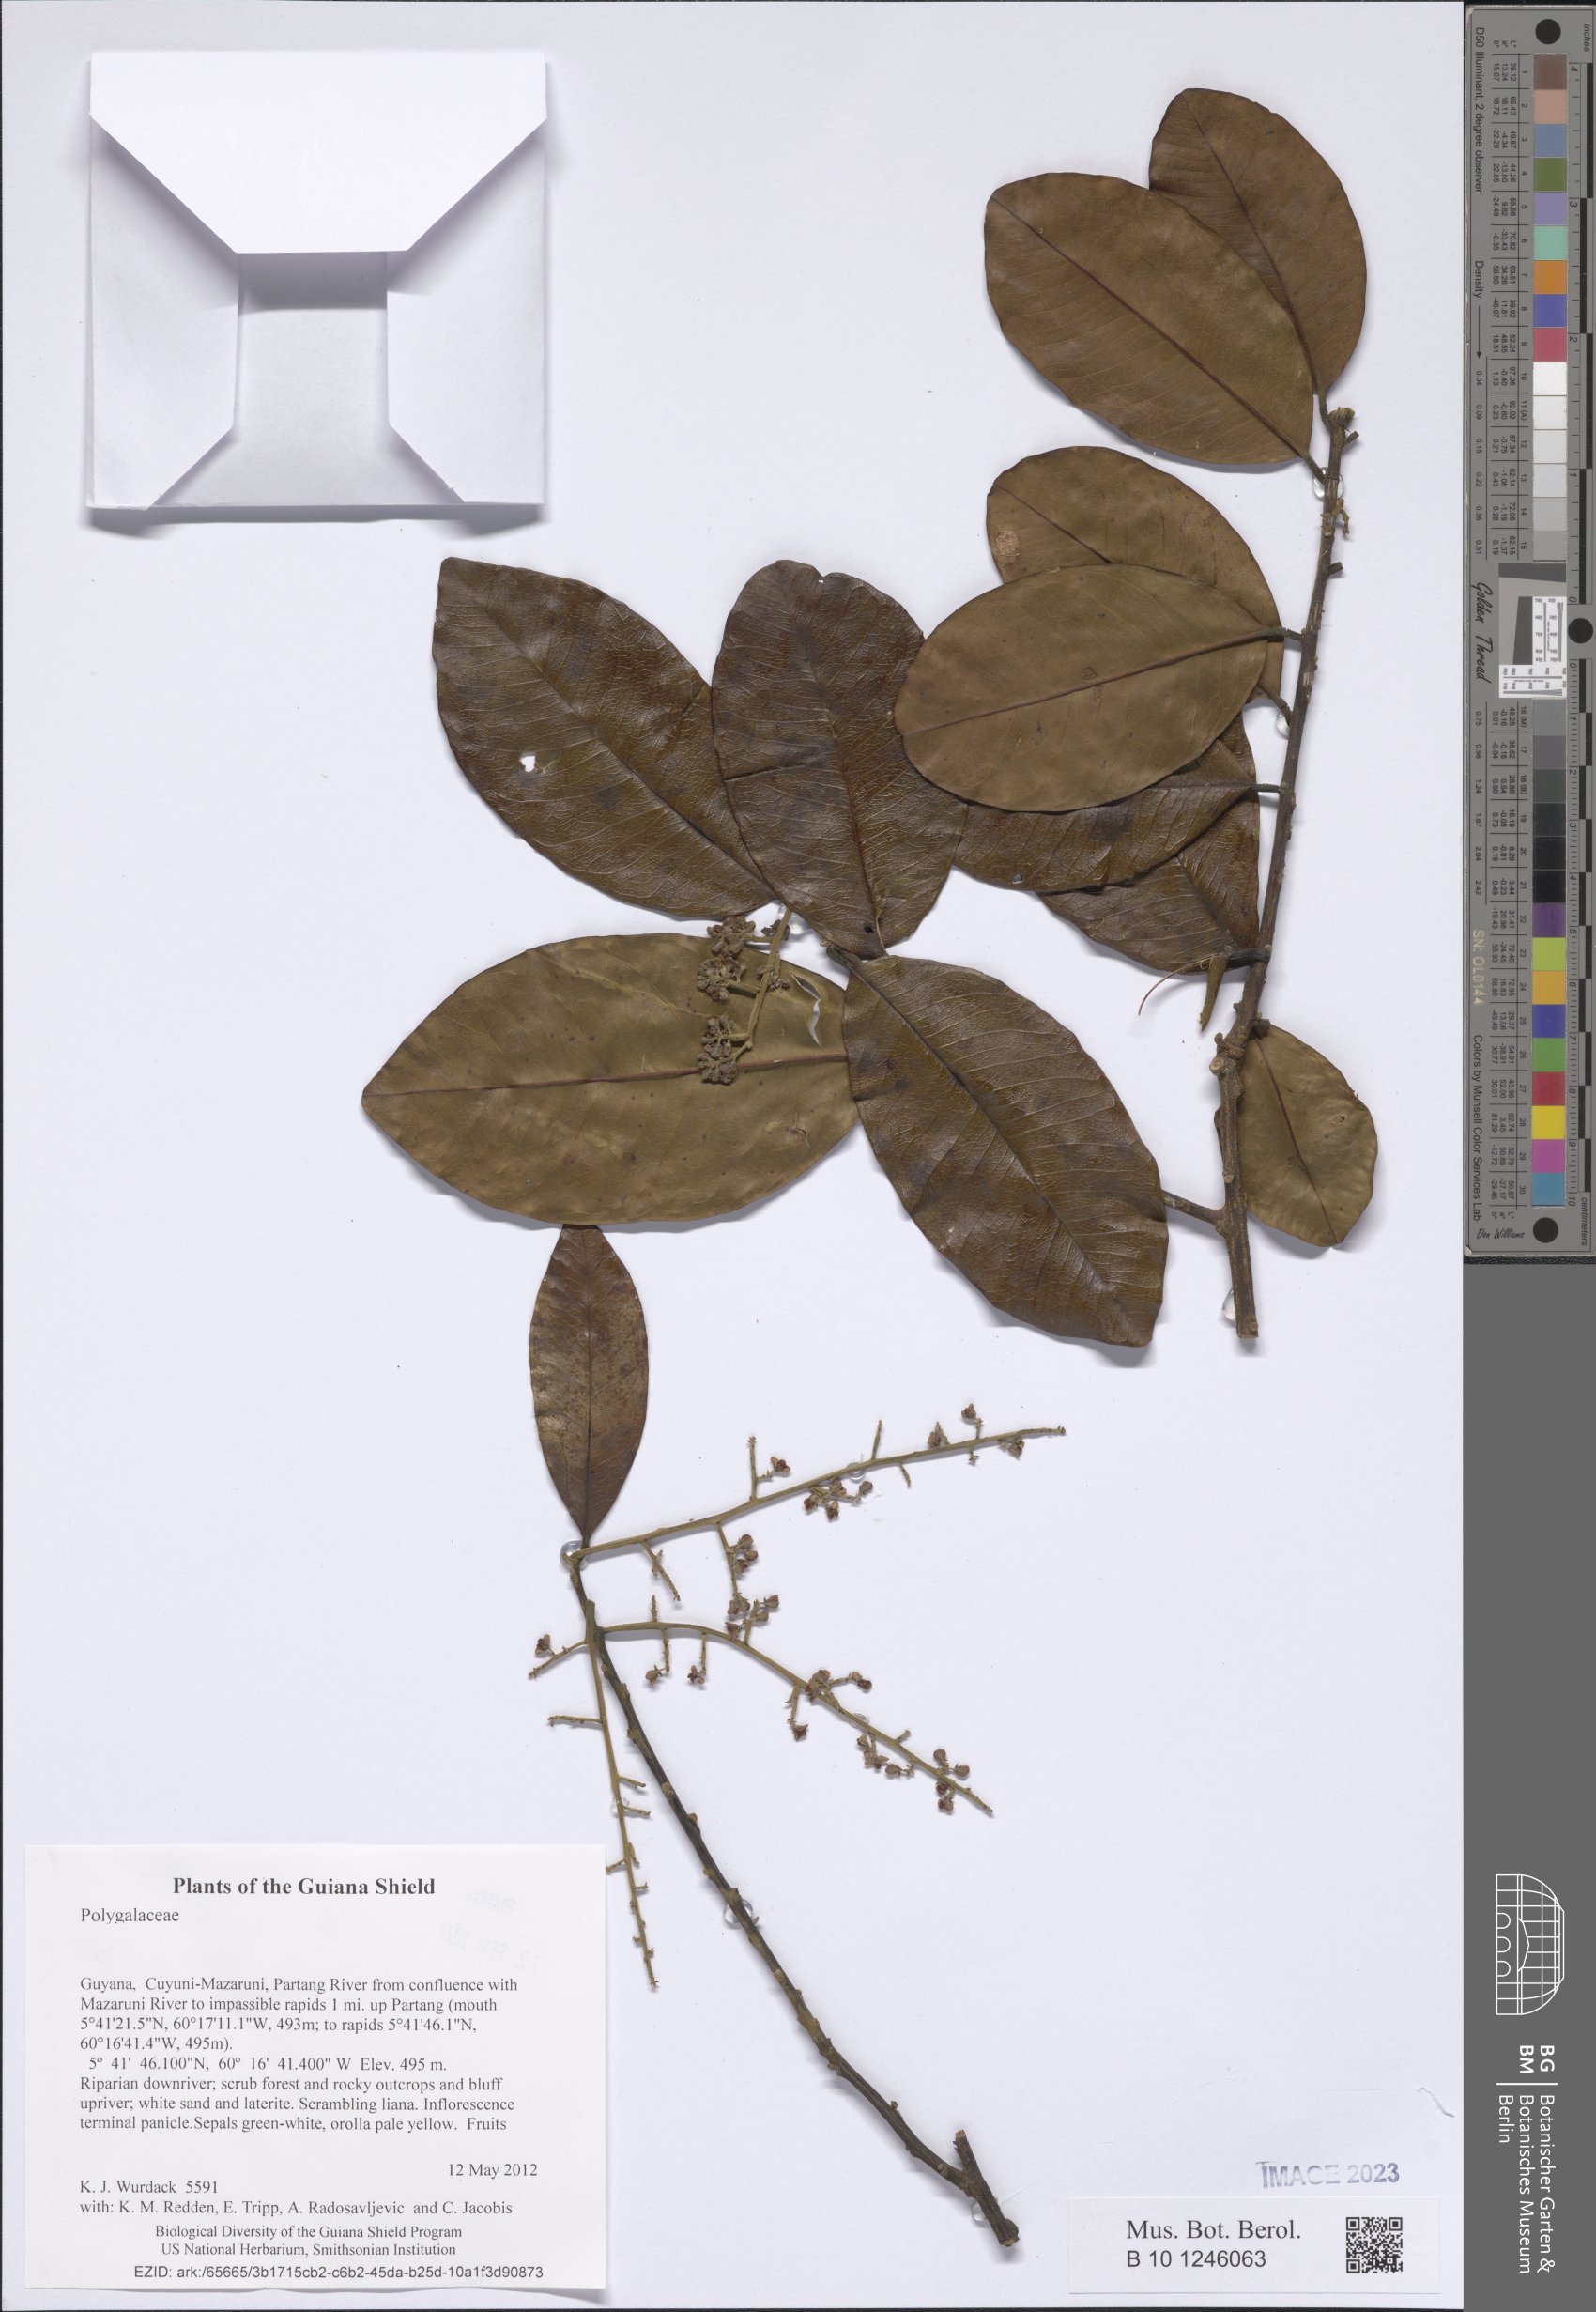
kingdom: Plantae
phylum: Tracheophyta
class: Magnoliopsida
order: Fabales
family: Polygalaceae
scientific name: Polygalaceae
